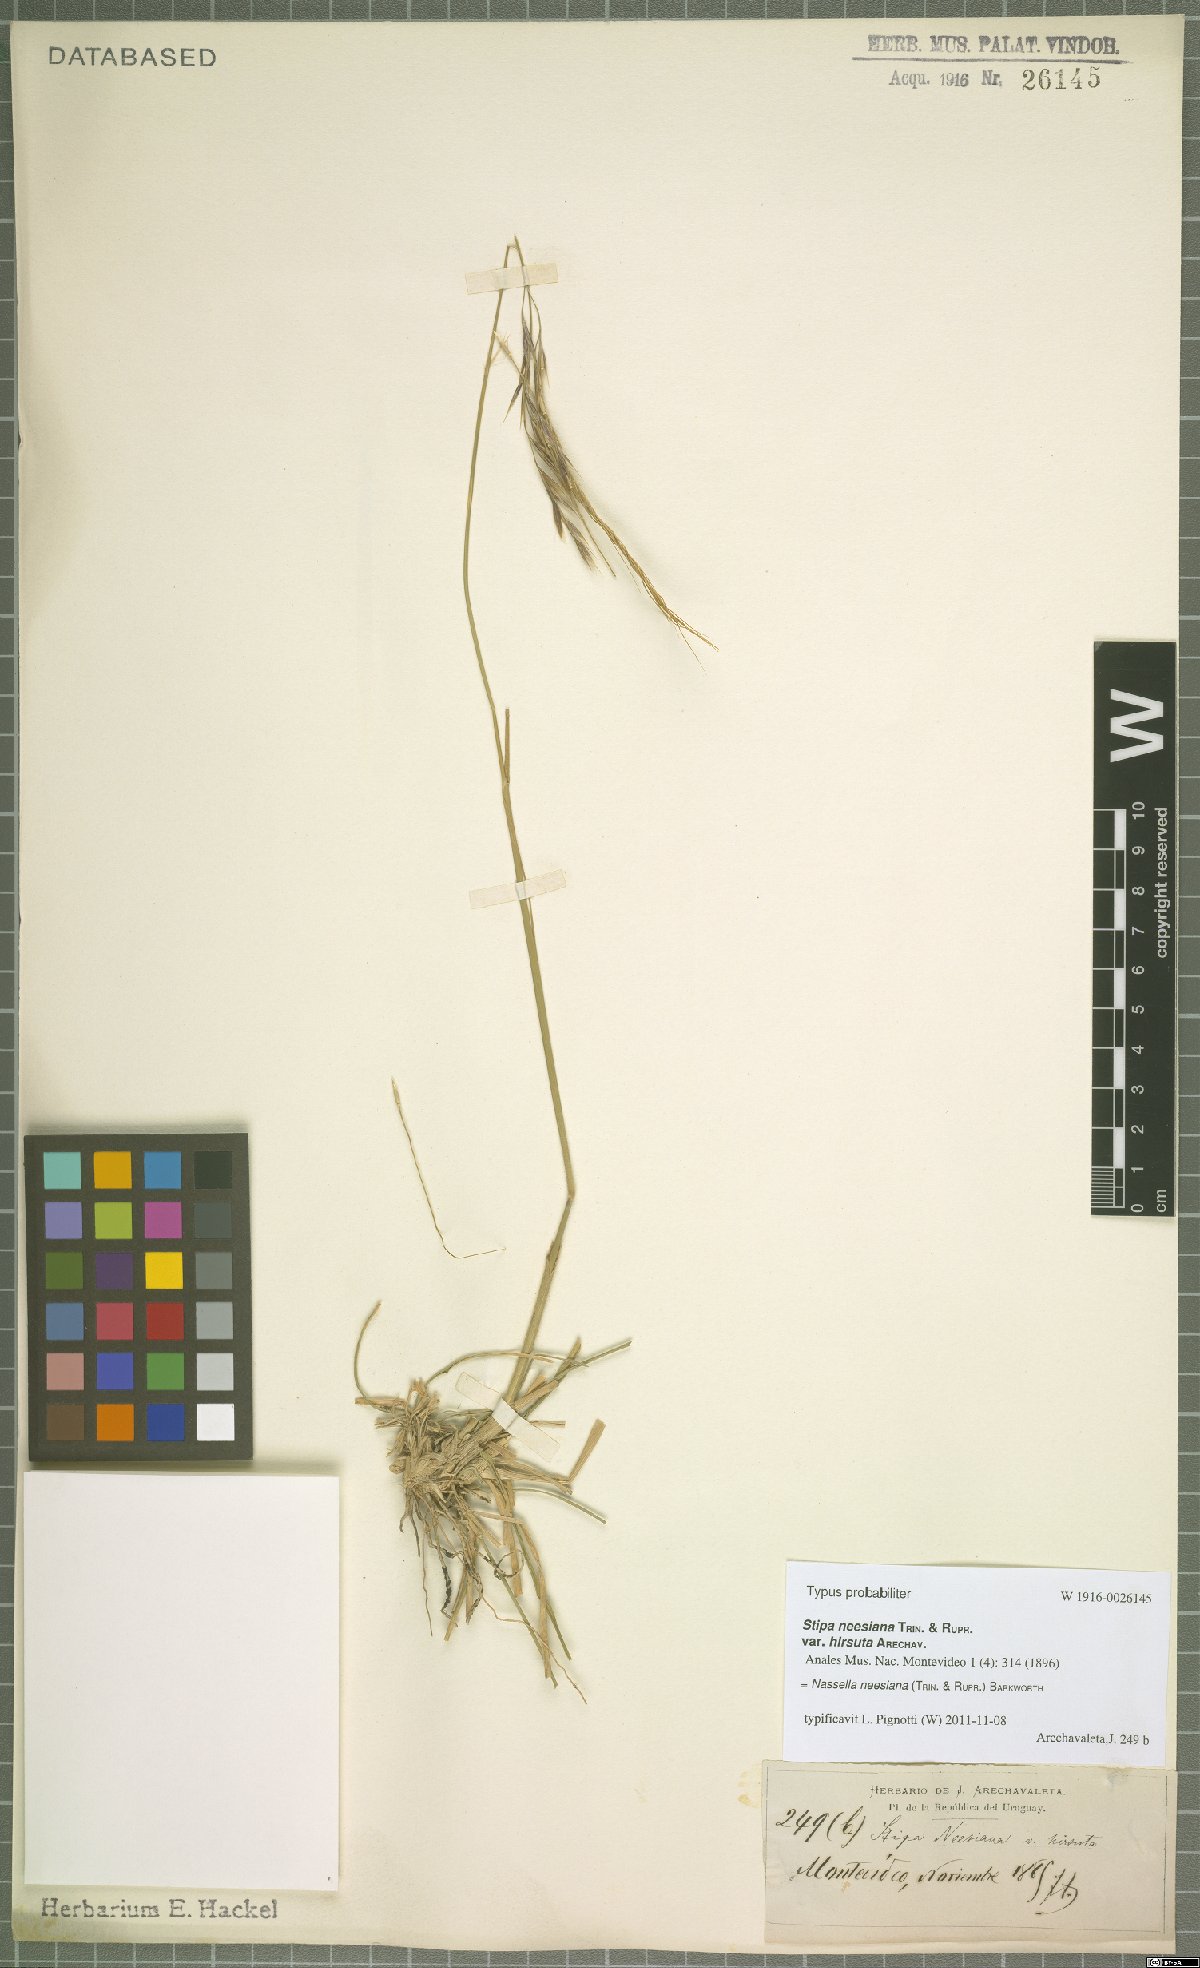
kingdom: Plantae
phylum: Tracheophyta
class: Liliopsida
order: Poales
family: Poaceae
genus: Nassella
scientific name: Nassella neesiana
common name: American needle-grass
